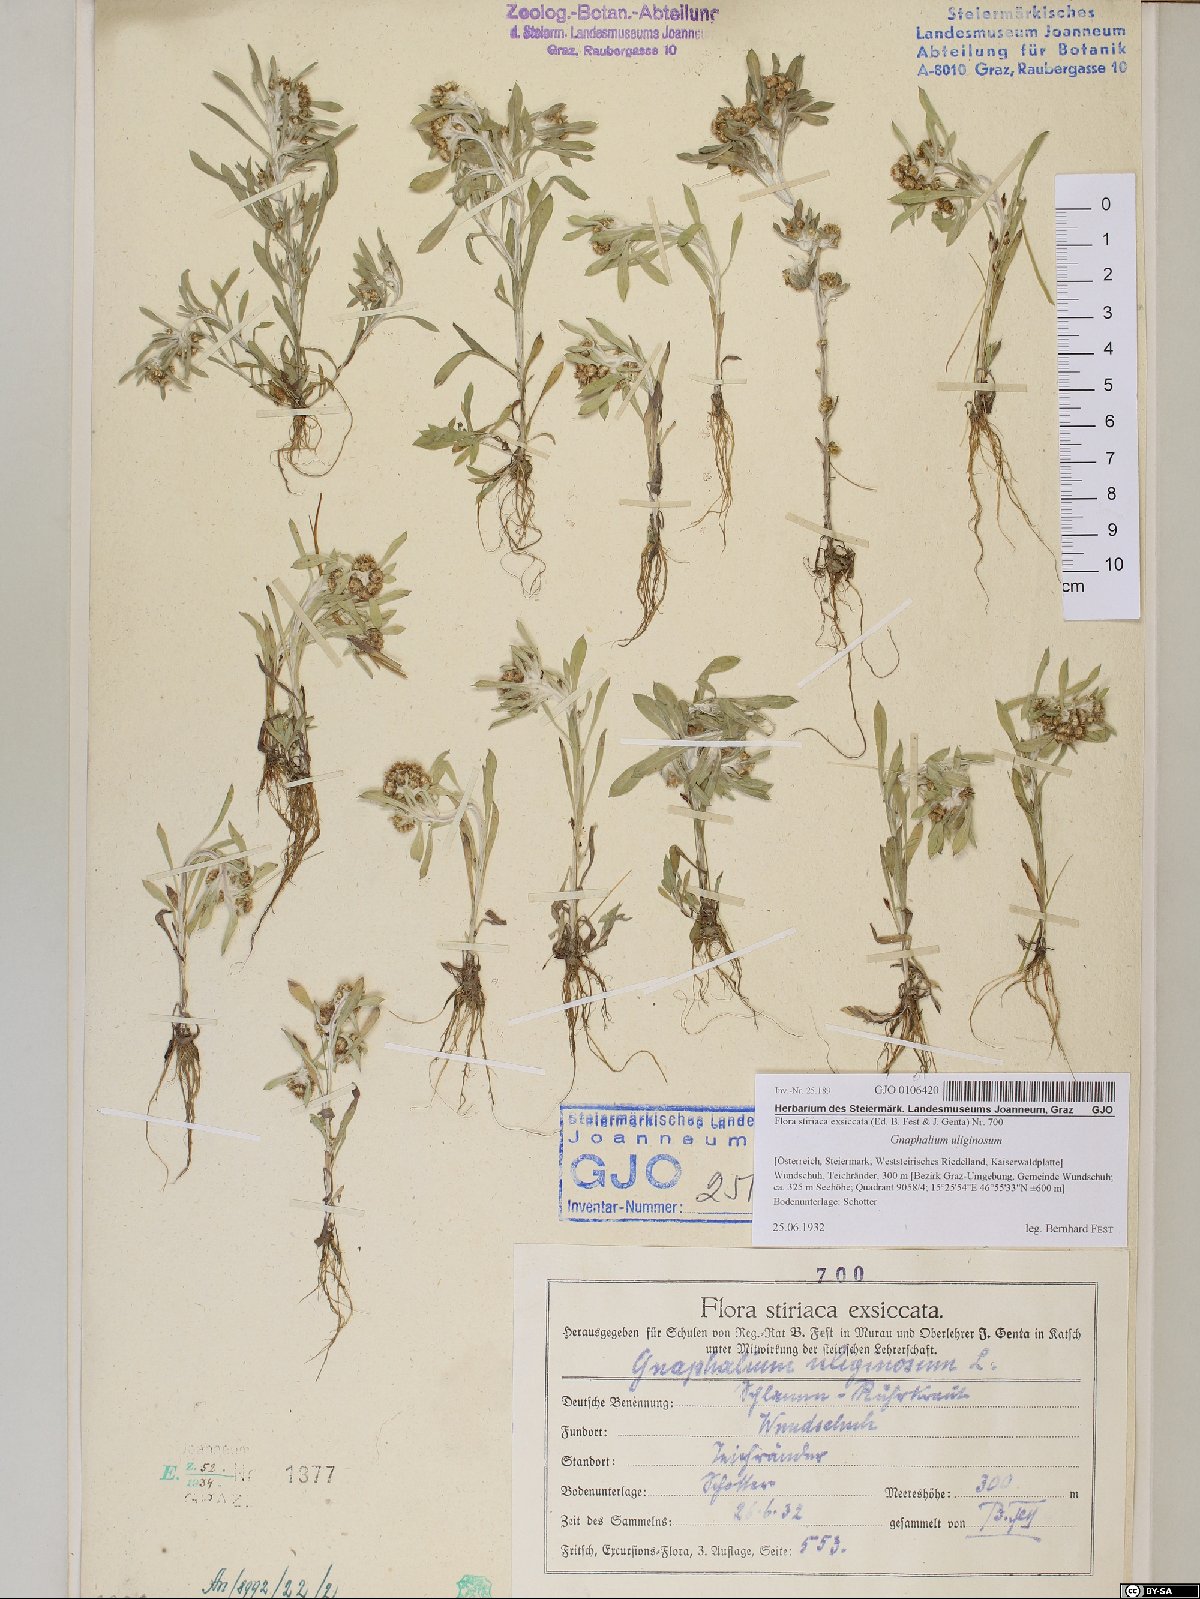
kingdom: Plantae
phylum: Tracheophyta
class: Magnoliopsida
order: Asterales
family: Asteraceae
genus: Gnaphalium
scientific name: Gnaphalium uliginosum
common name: Marsh cudweed
